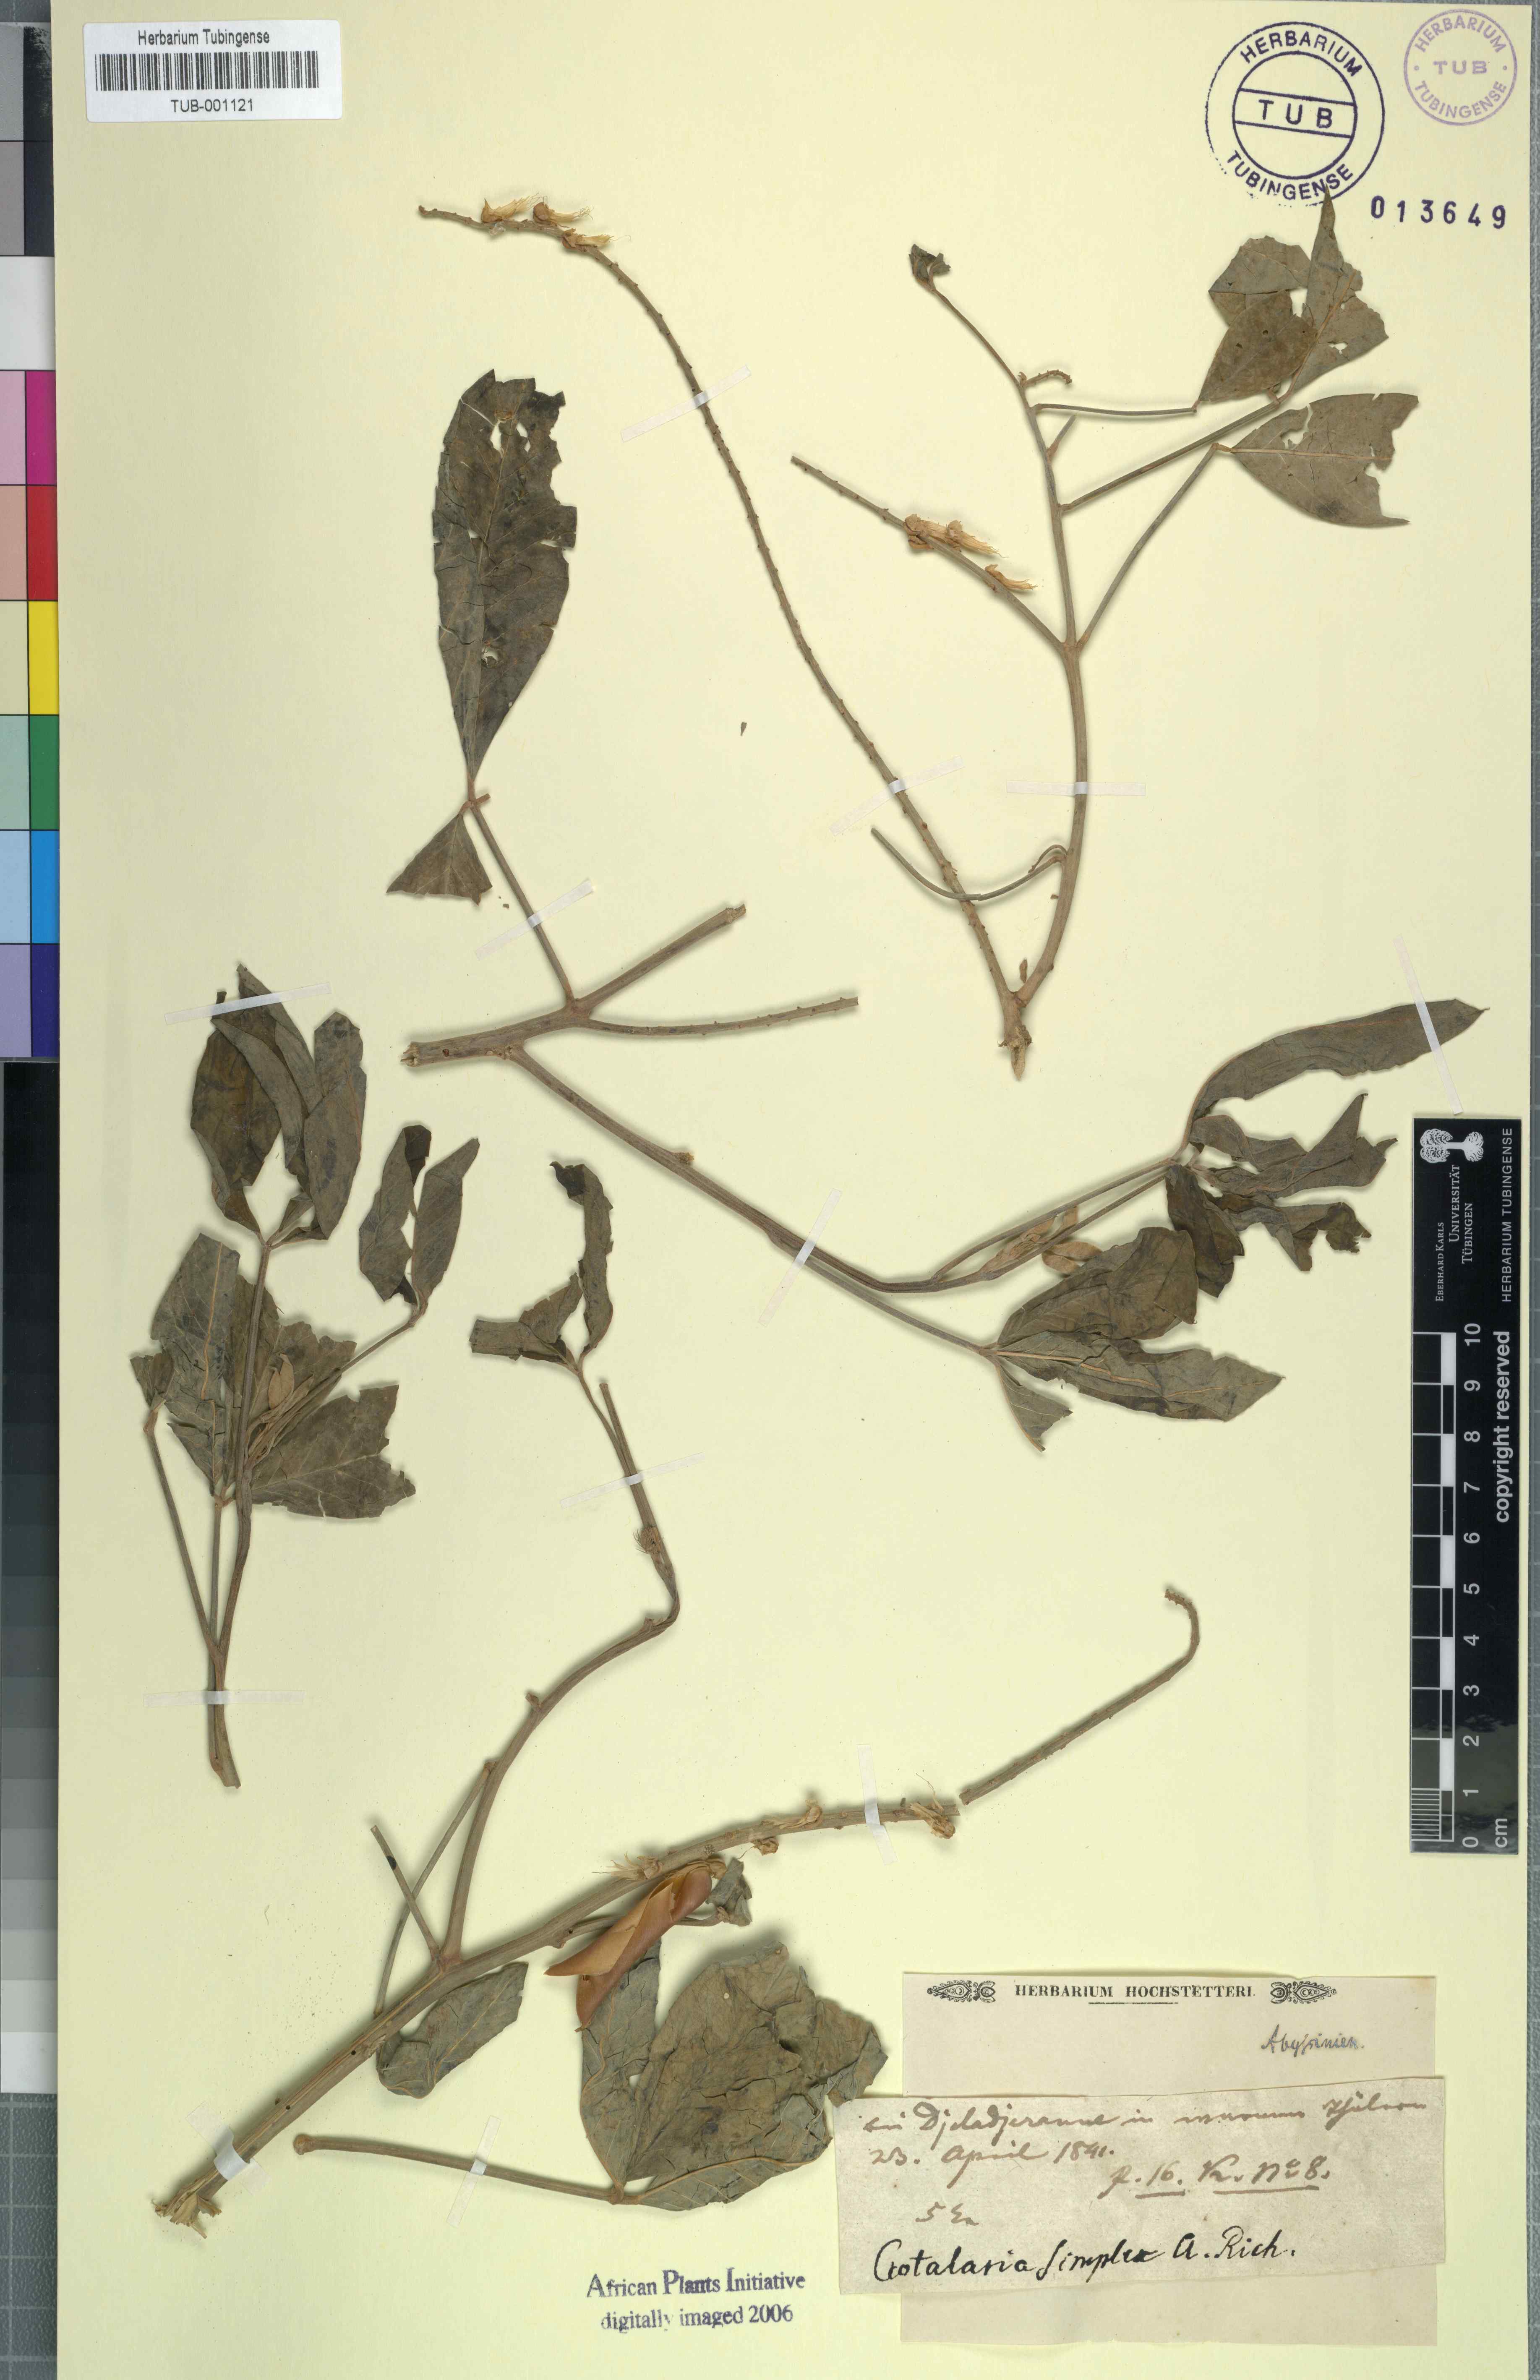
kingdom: Plantae
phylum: Tracheophyta
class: Magnoliopsida
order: Fabales
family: Fabaceae
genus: Crotalaria
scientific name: Crotalaria recta
